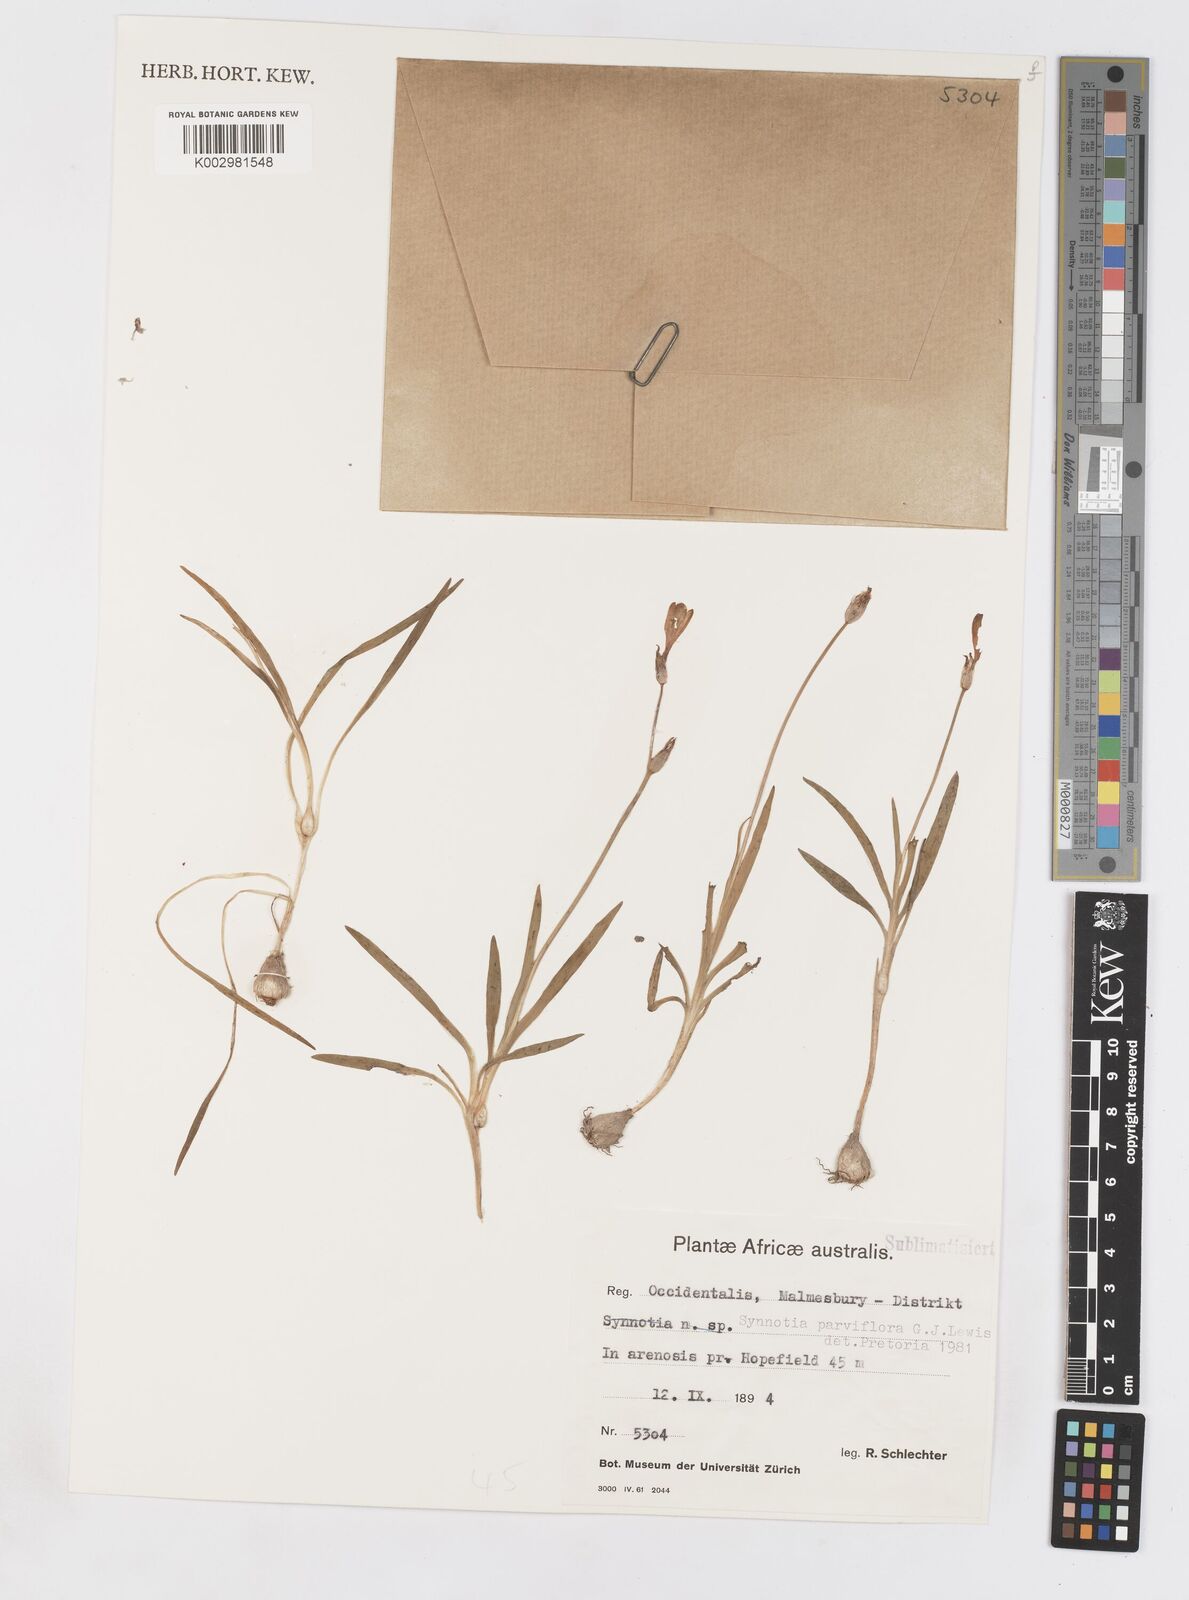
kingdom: Plantae
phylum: Tracheophyta
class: Liliopsida
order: Asparagales
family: Iridaceae
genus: Sparaxis
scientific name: Sparaxis parviflora
